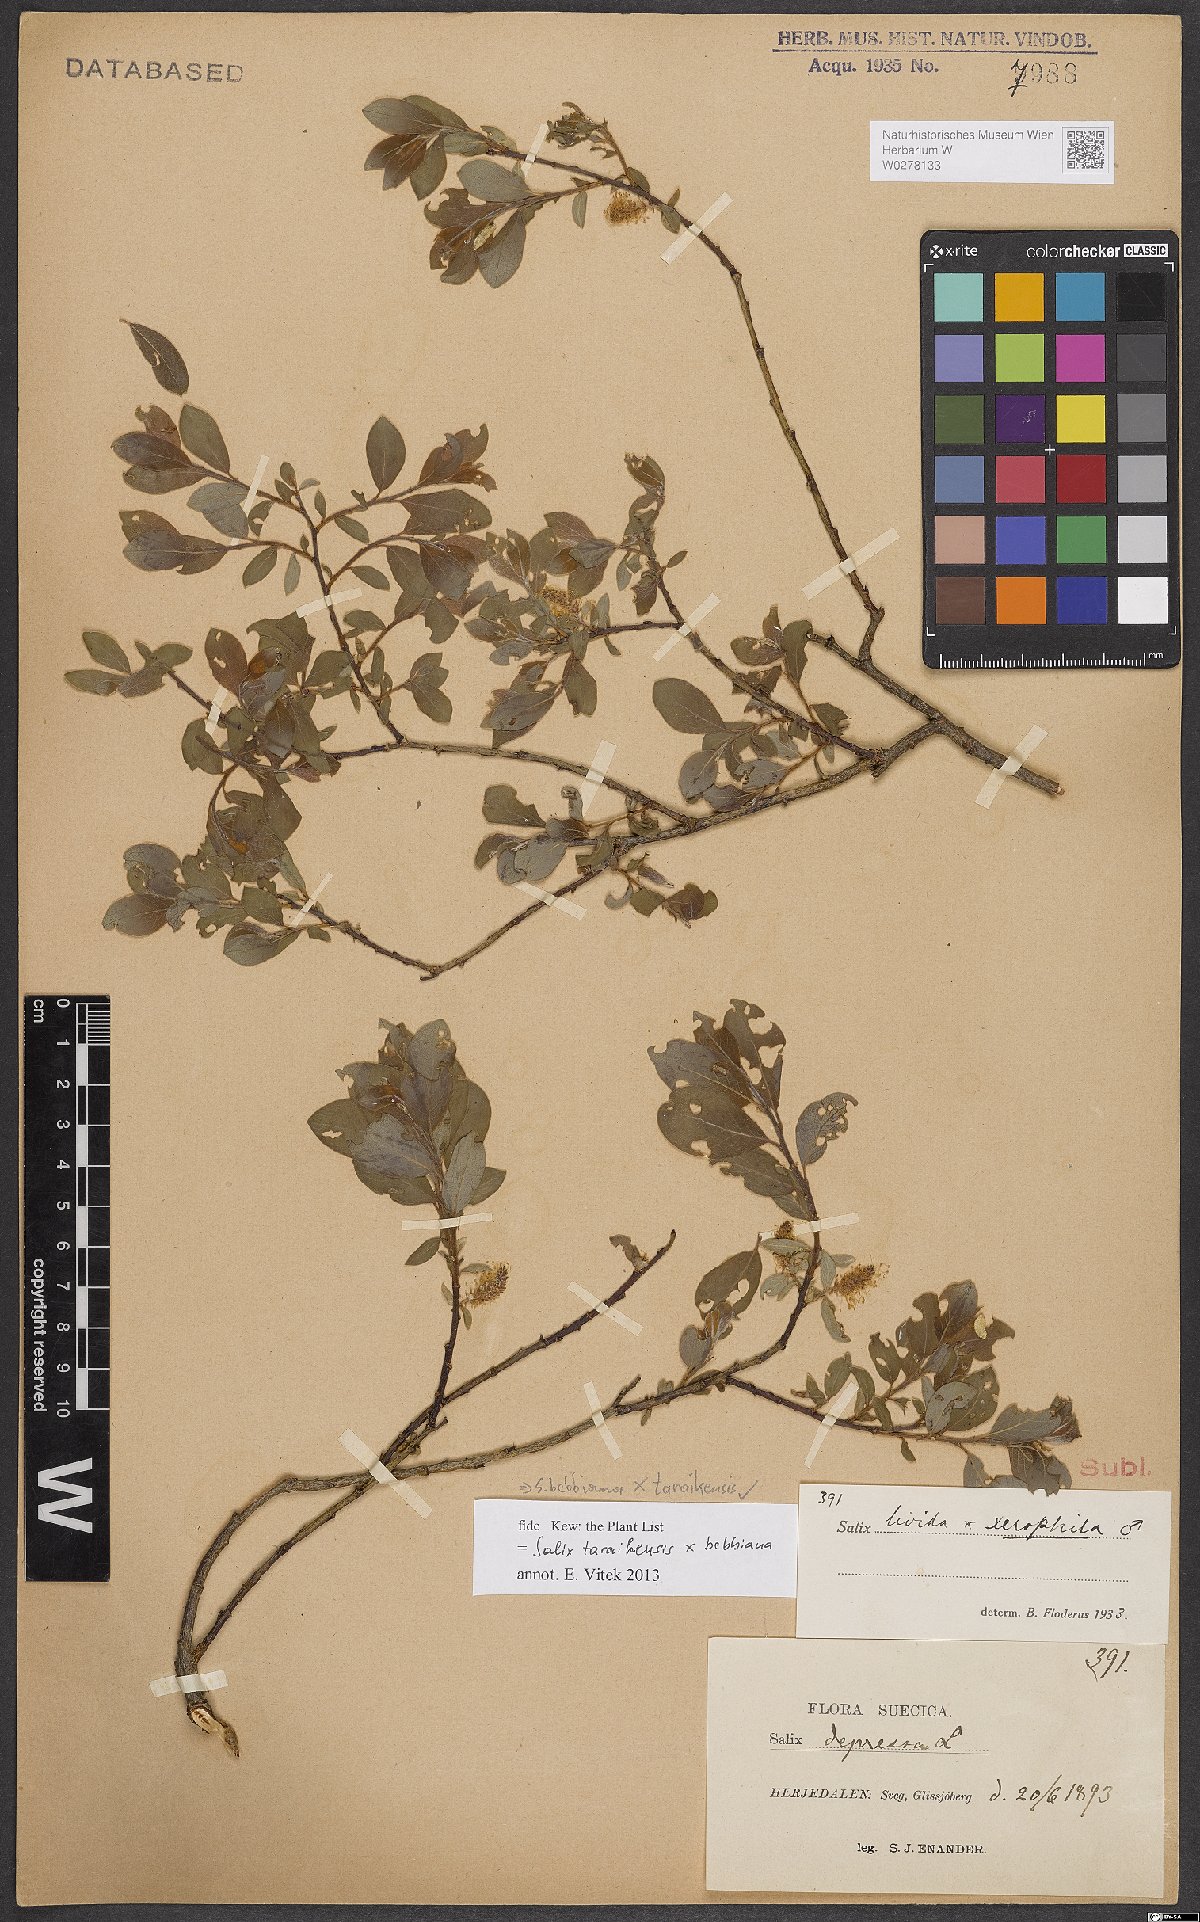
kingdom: Plantae
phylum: Tracheophyta
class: Magnoliopsida
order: Malpighiales
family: Salicaceae
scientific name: Salicaceae
